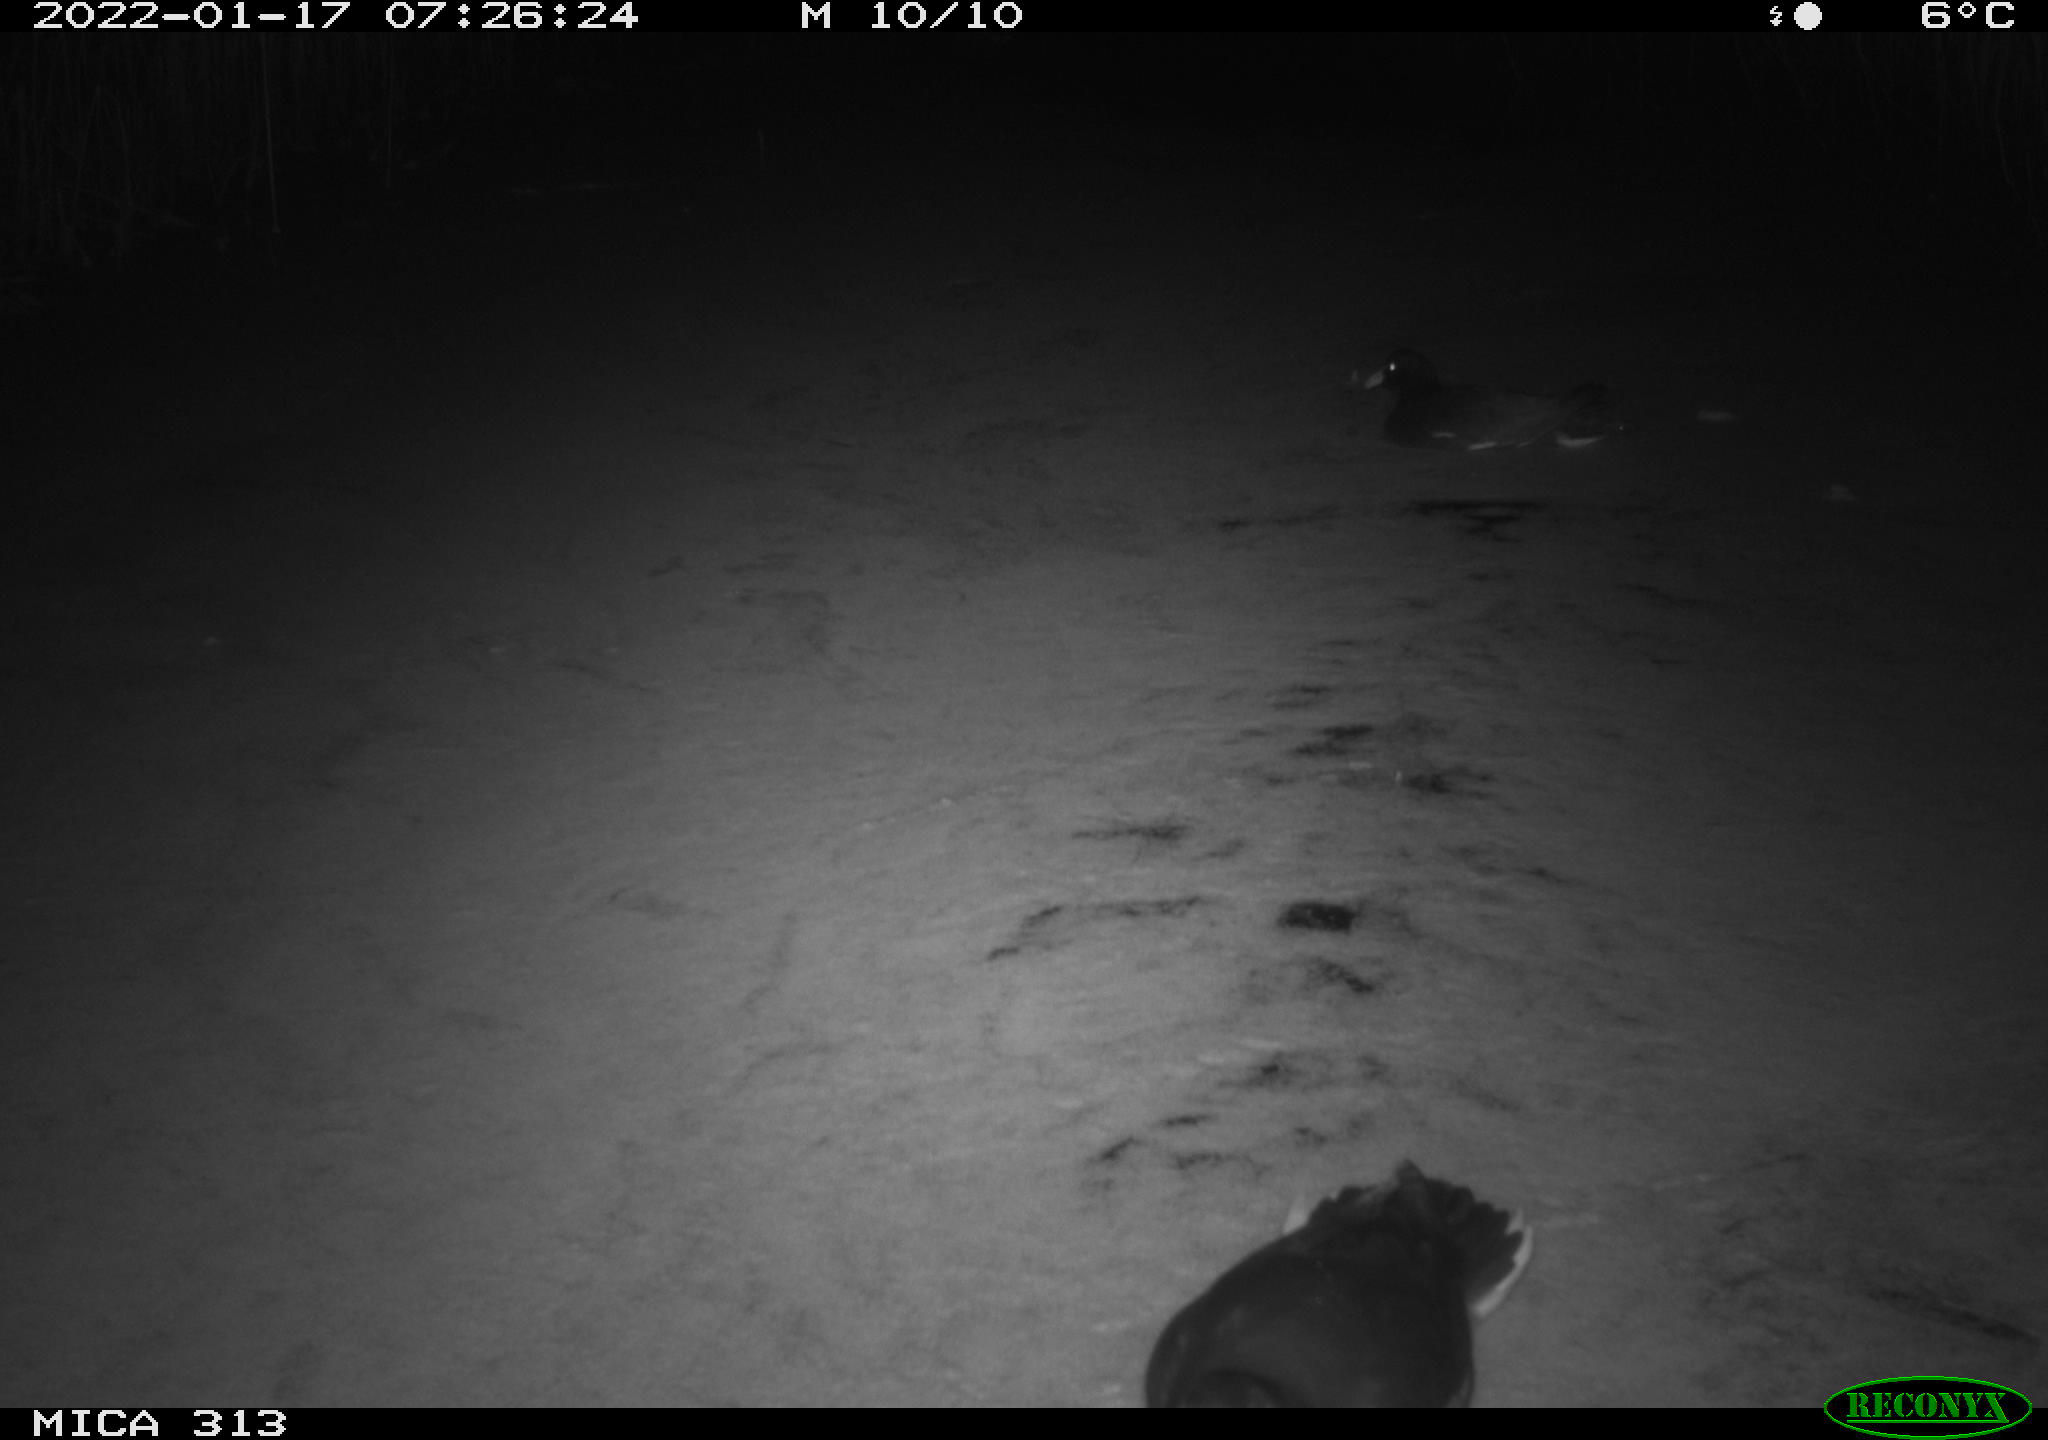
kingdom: Animalia
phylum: Chordata
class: Aves
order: Gruiformes
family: Rallidae
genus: Fulica
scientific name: Fulica atra
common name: Eurasian coot
